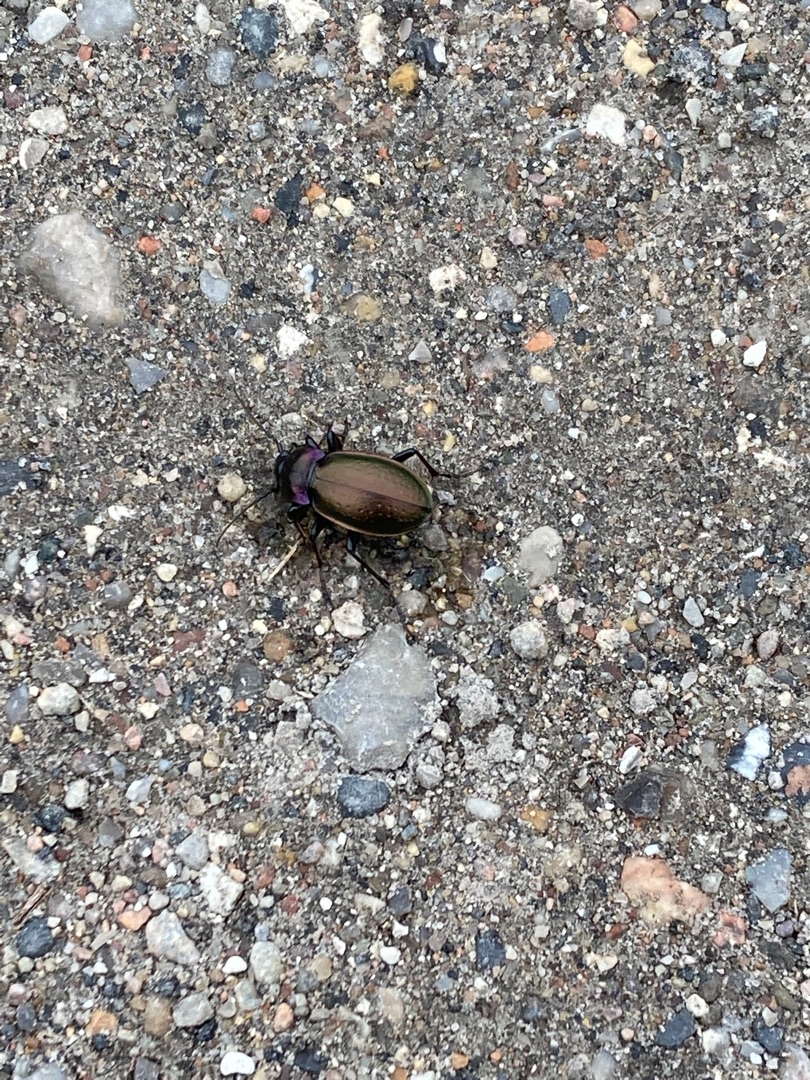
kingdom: Animalia
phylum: Arthropoda
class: Insecta
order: Coleoptera
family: Carabidae
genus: Carabus
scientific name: Carabus nemoralis
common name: Kratløber
